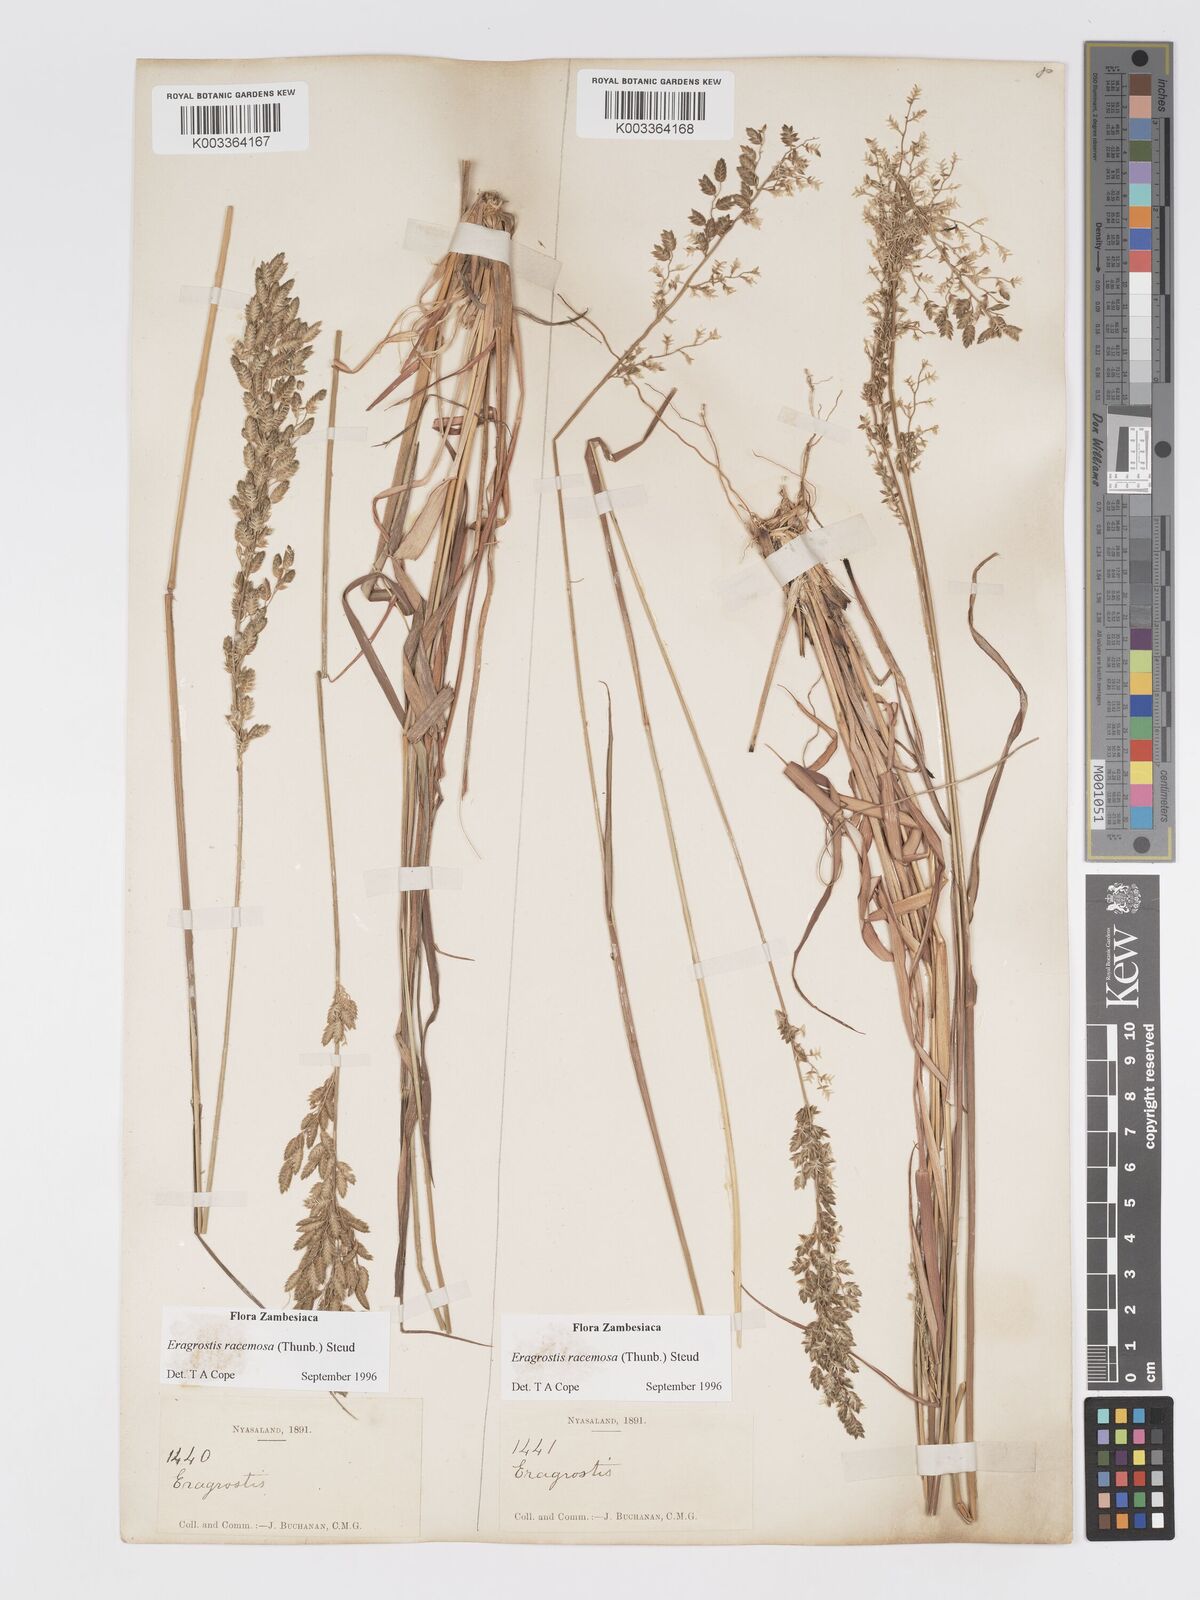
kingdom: Plantae
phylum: Tracheophyta
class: Liliopsida
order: Poales
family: Poaceae
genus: Eragrostis
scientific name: Eragrostis racemosa
